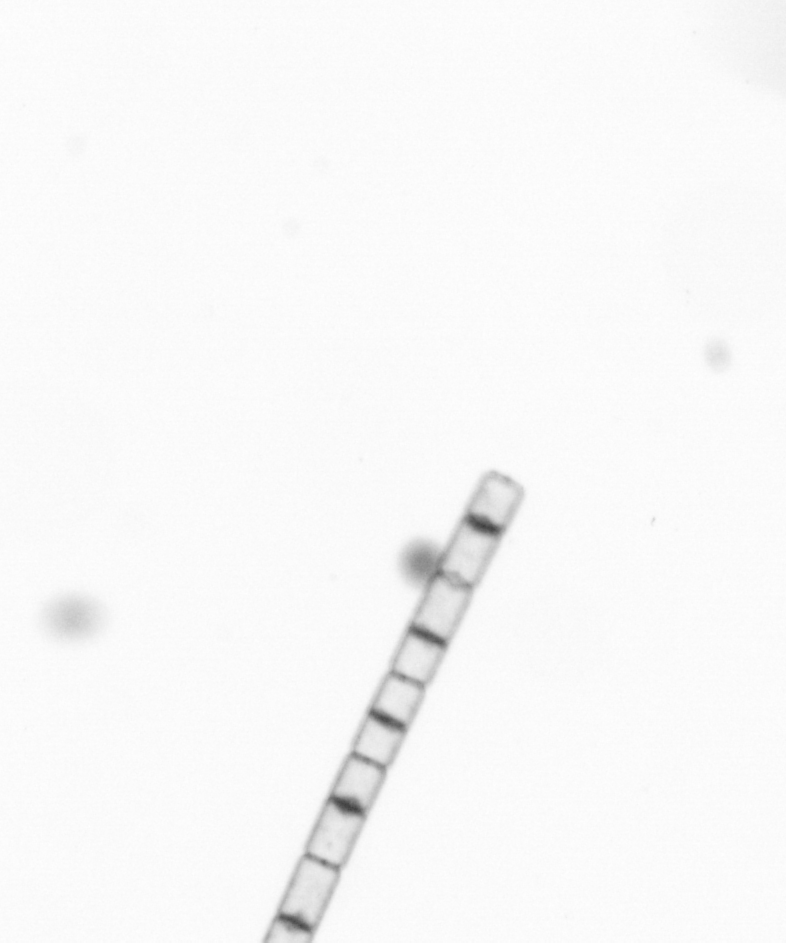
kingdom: Chromista
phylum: Ochrophyta
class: Bacillariophyceae
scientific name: Bacillariophyceae
